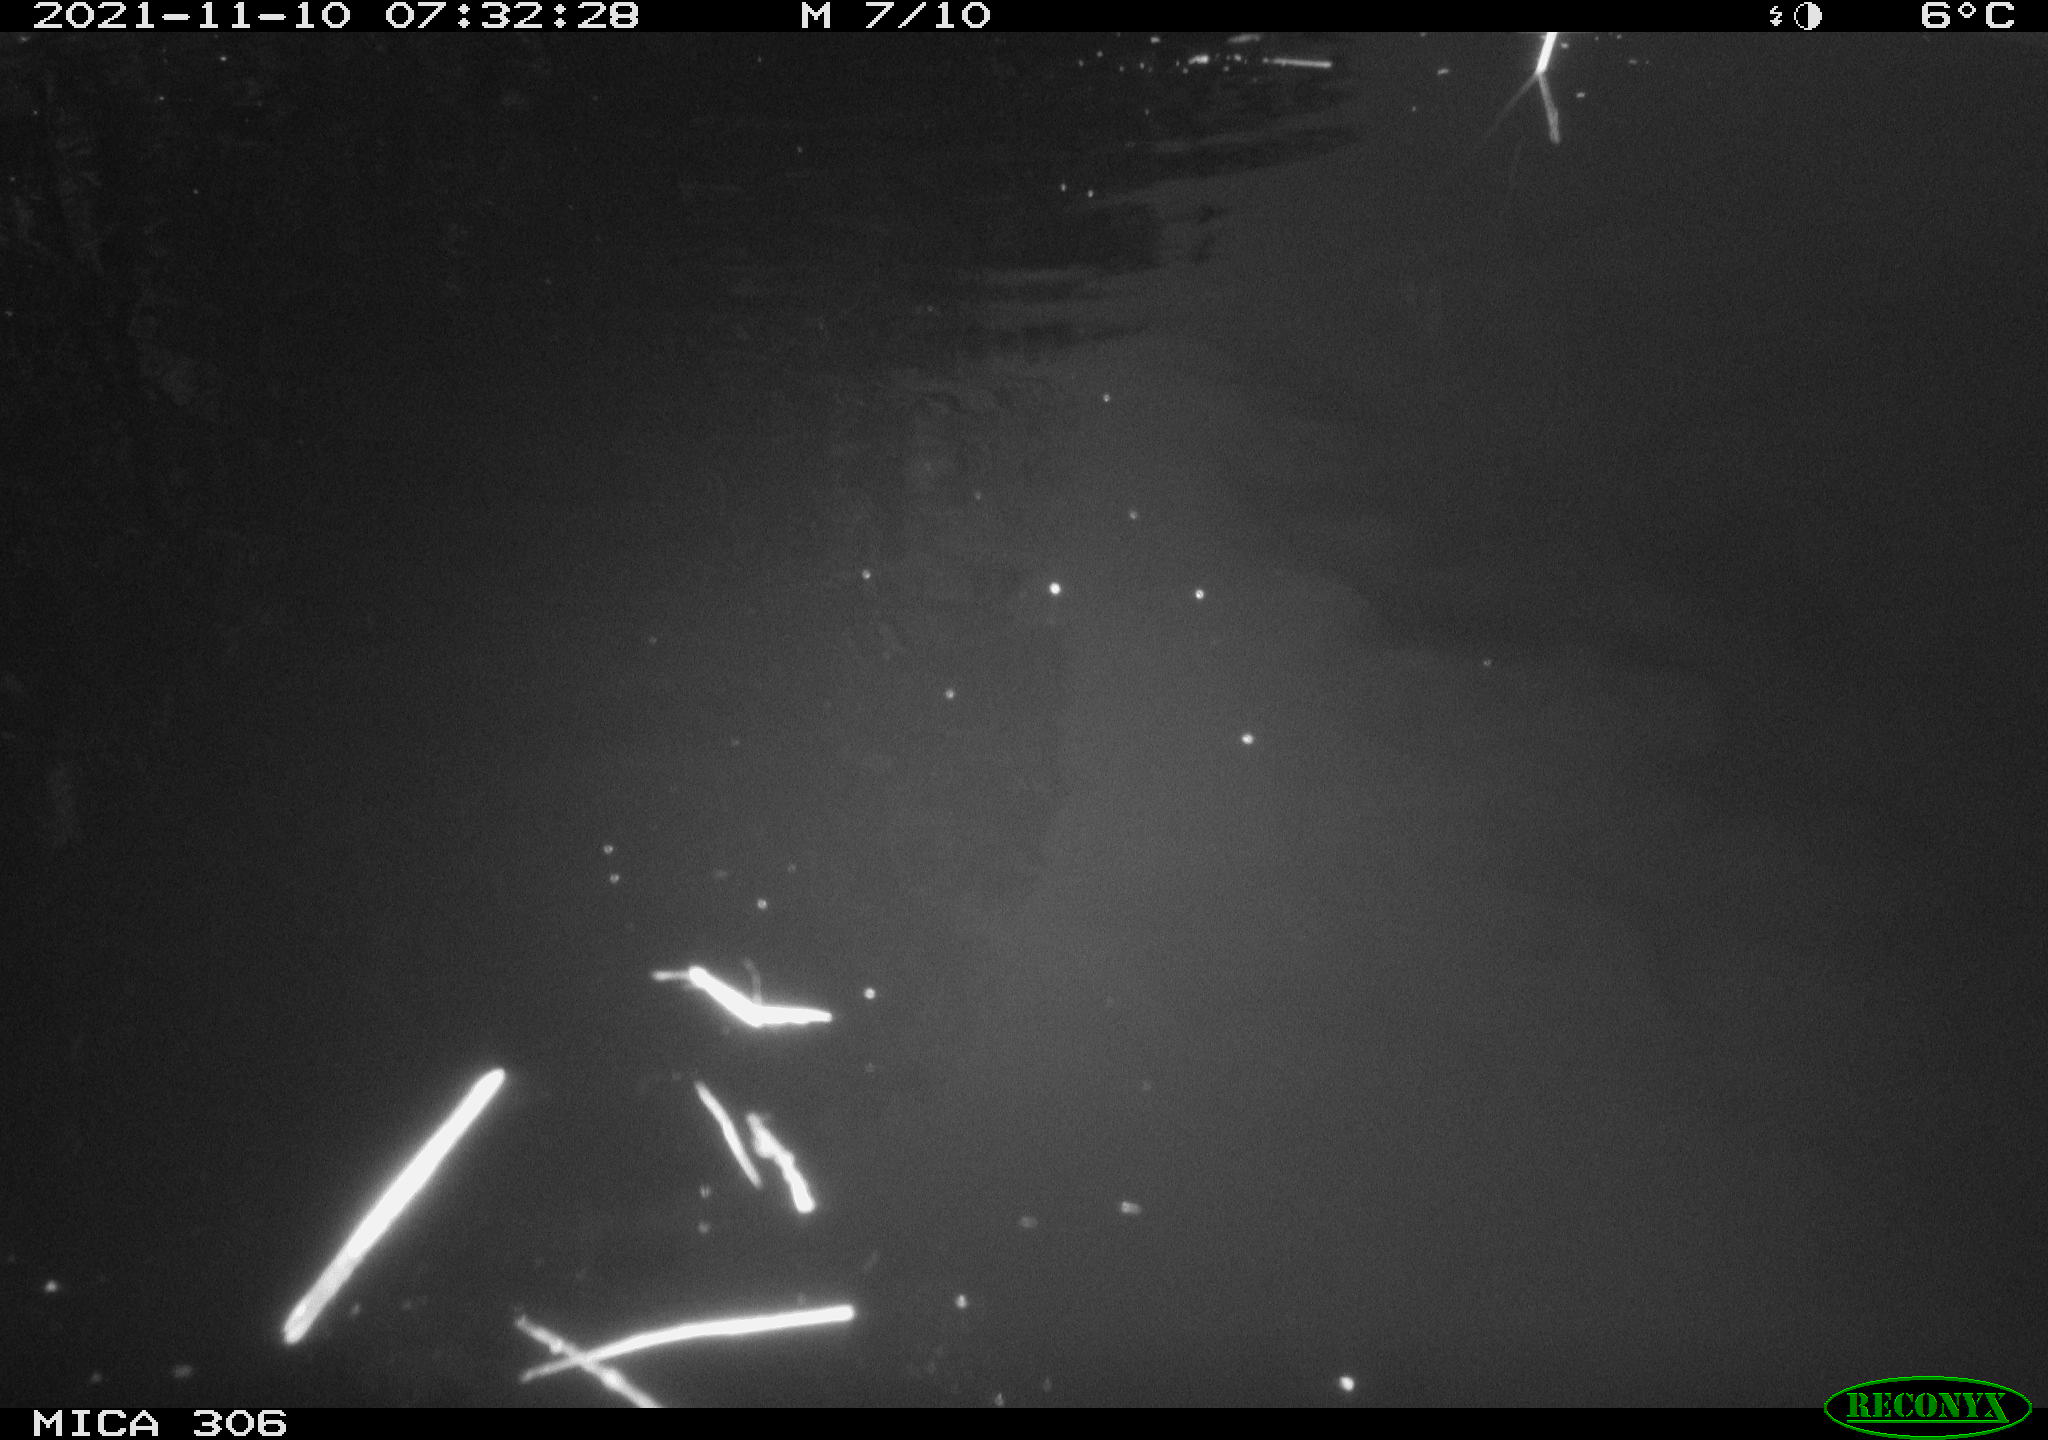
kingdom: Animalia
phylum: Chordata
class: Aves
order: Gruiformes
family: Rallidae
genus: Fulica
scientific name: Fulica atra
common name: Eurasian coot
